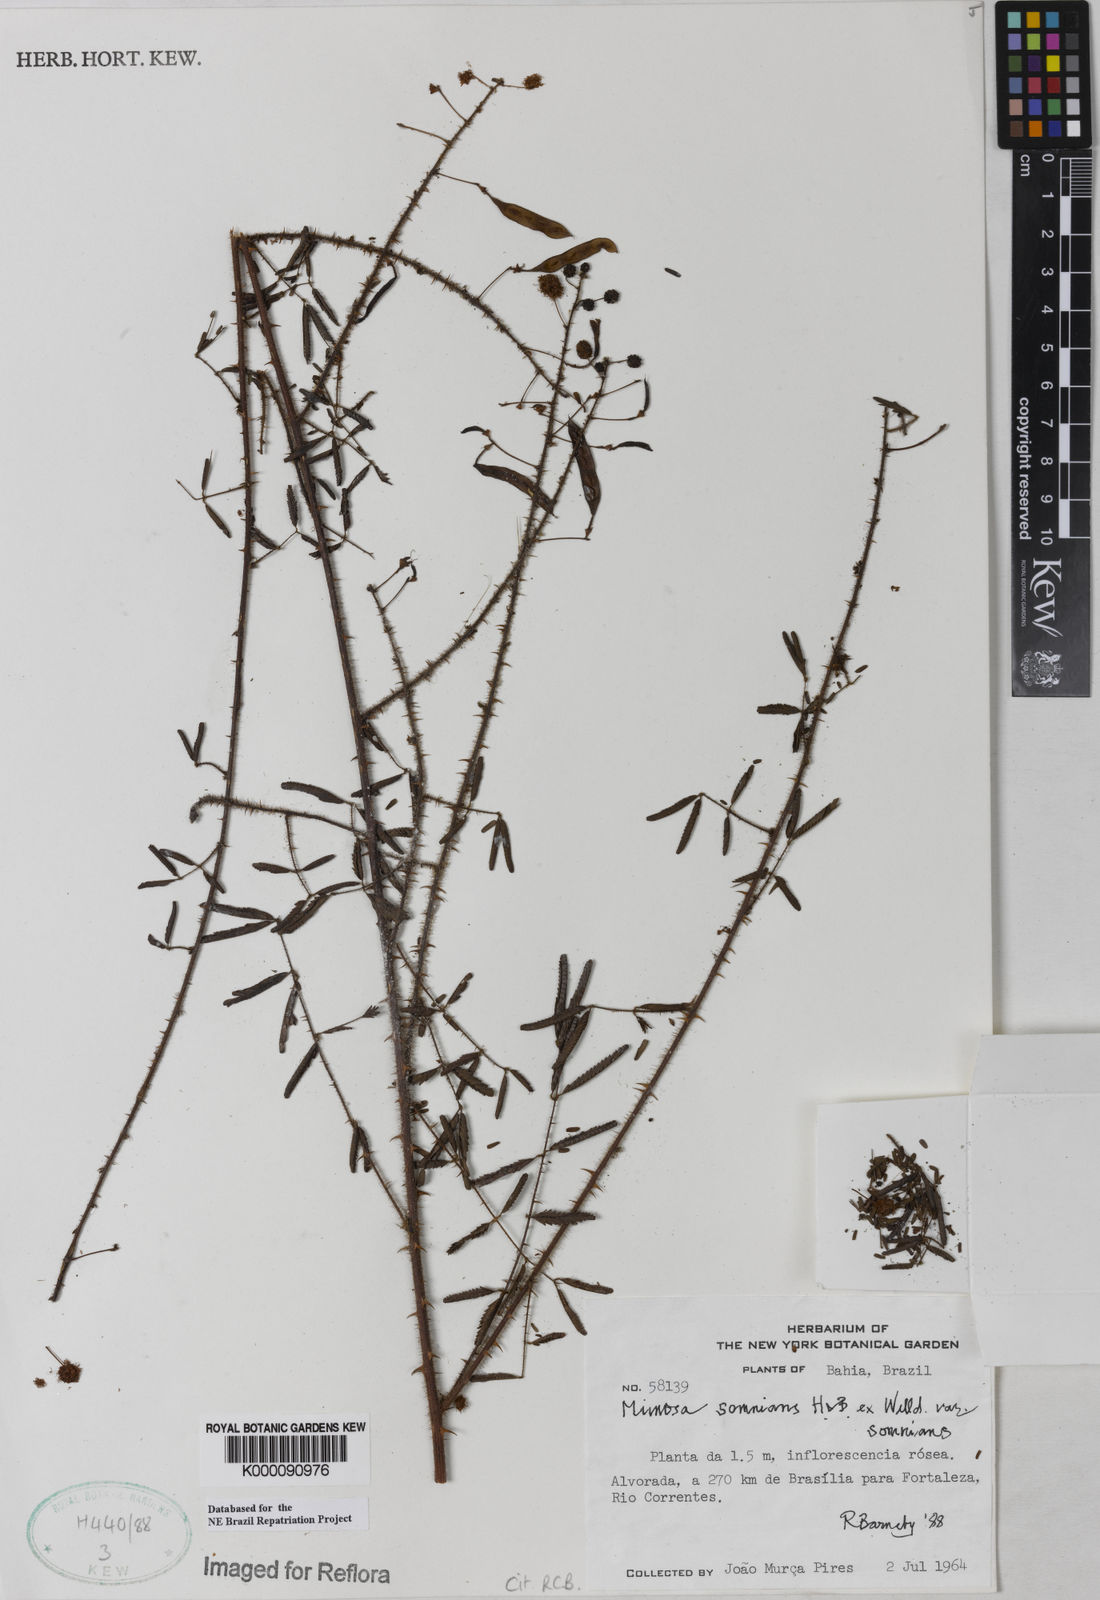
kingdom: Plantae
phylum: Tracheophyta
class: Magnoliopsida
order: Fabales
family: Fabaceae
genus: Mimosa
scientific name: Mimosa somnians
